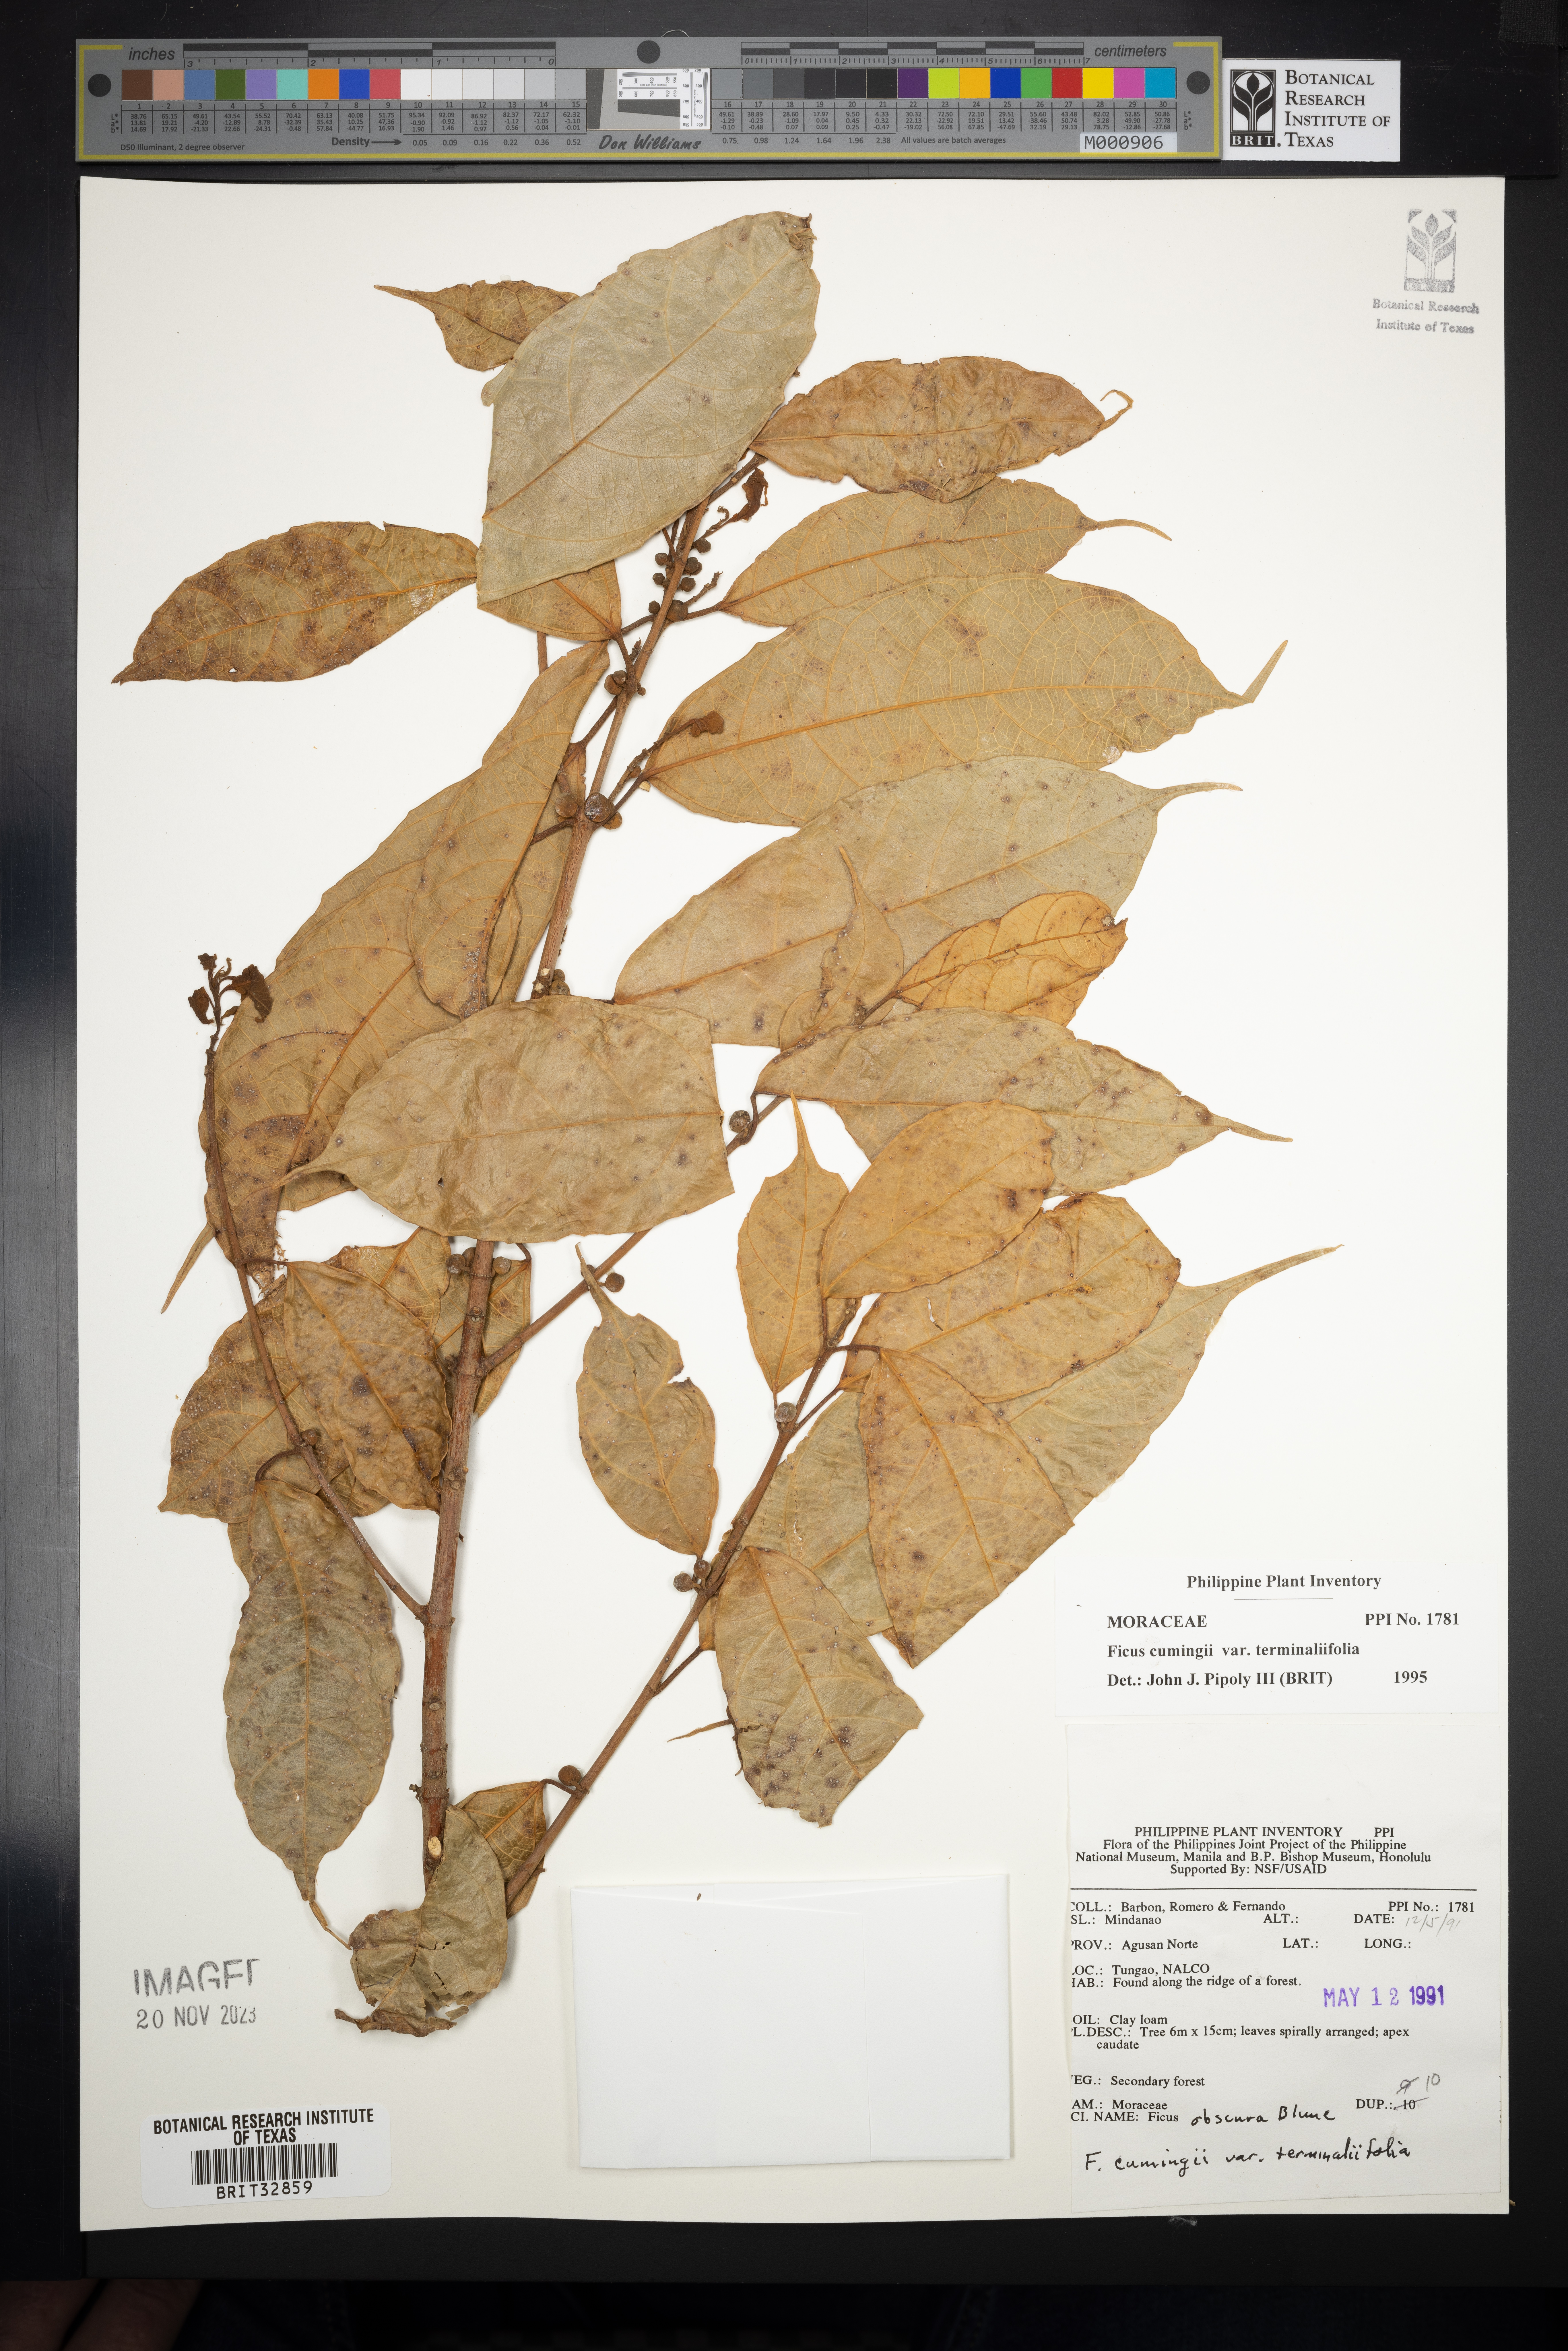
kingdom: Plantae
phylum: Tracheophyta
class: Magnoliopsida
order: Rosales
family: Moraceae
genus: Ficus
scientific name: Ficus cumingii
